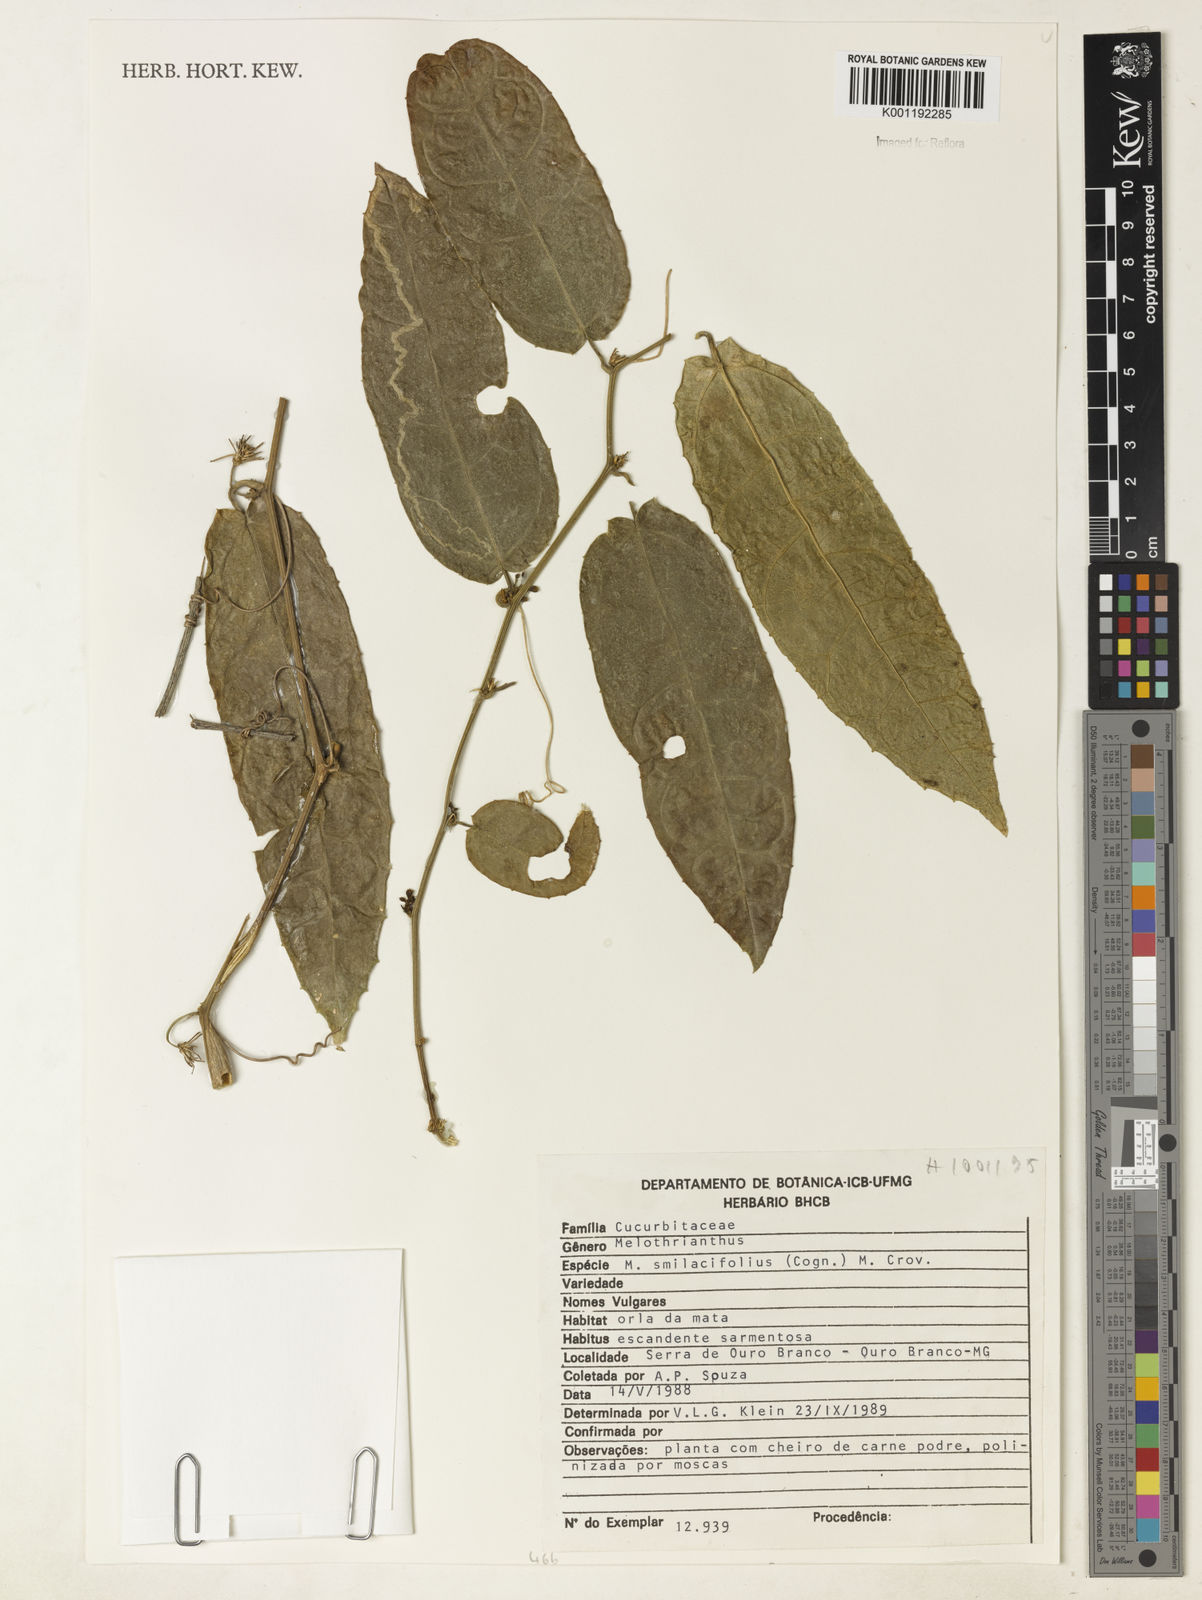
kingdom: Plantae
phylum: Tracheophyta
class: Magnoliopsida
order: Cucurbitales
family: Cucurbitaceae
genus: Apodanthera
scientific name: Apodanthera smilacifolia
